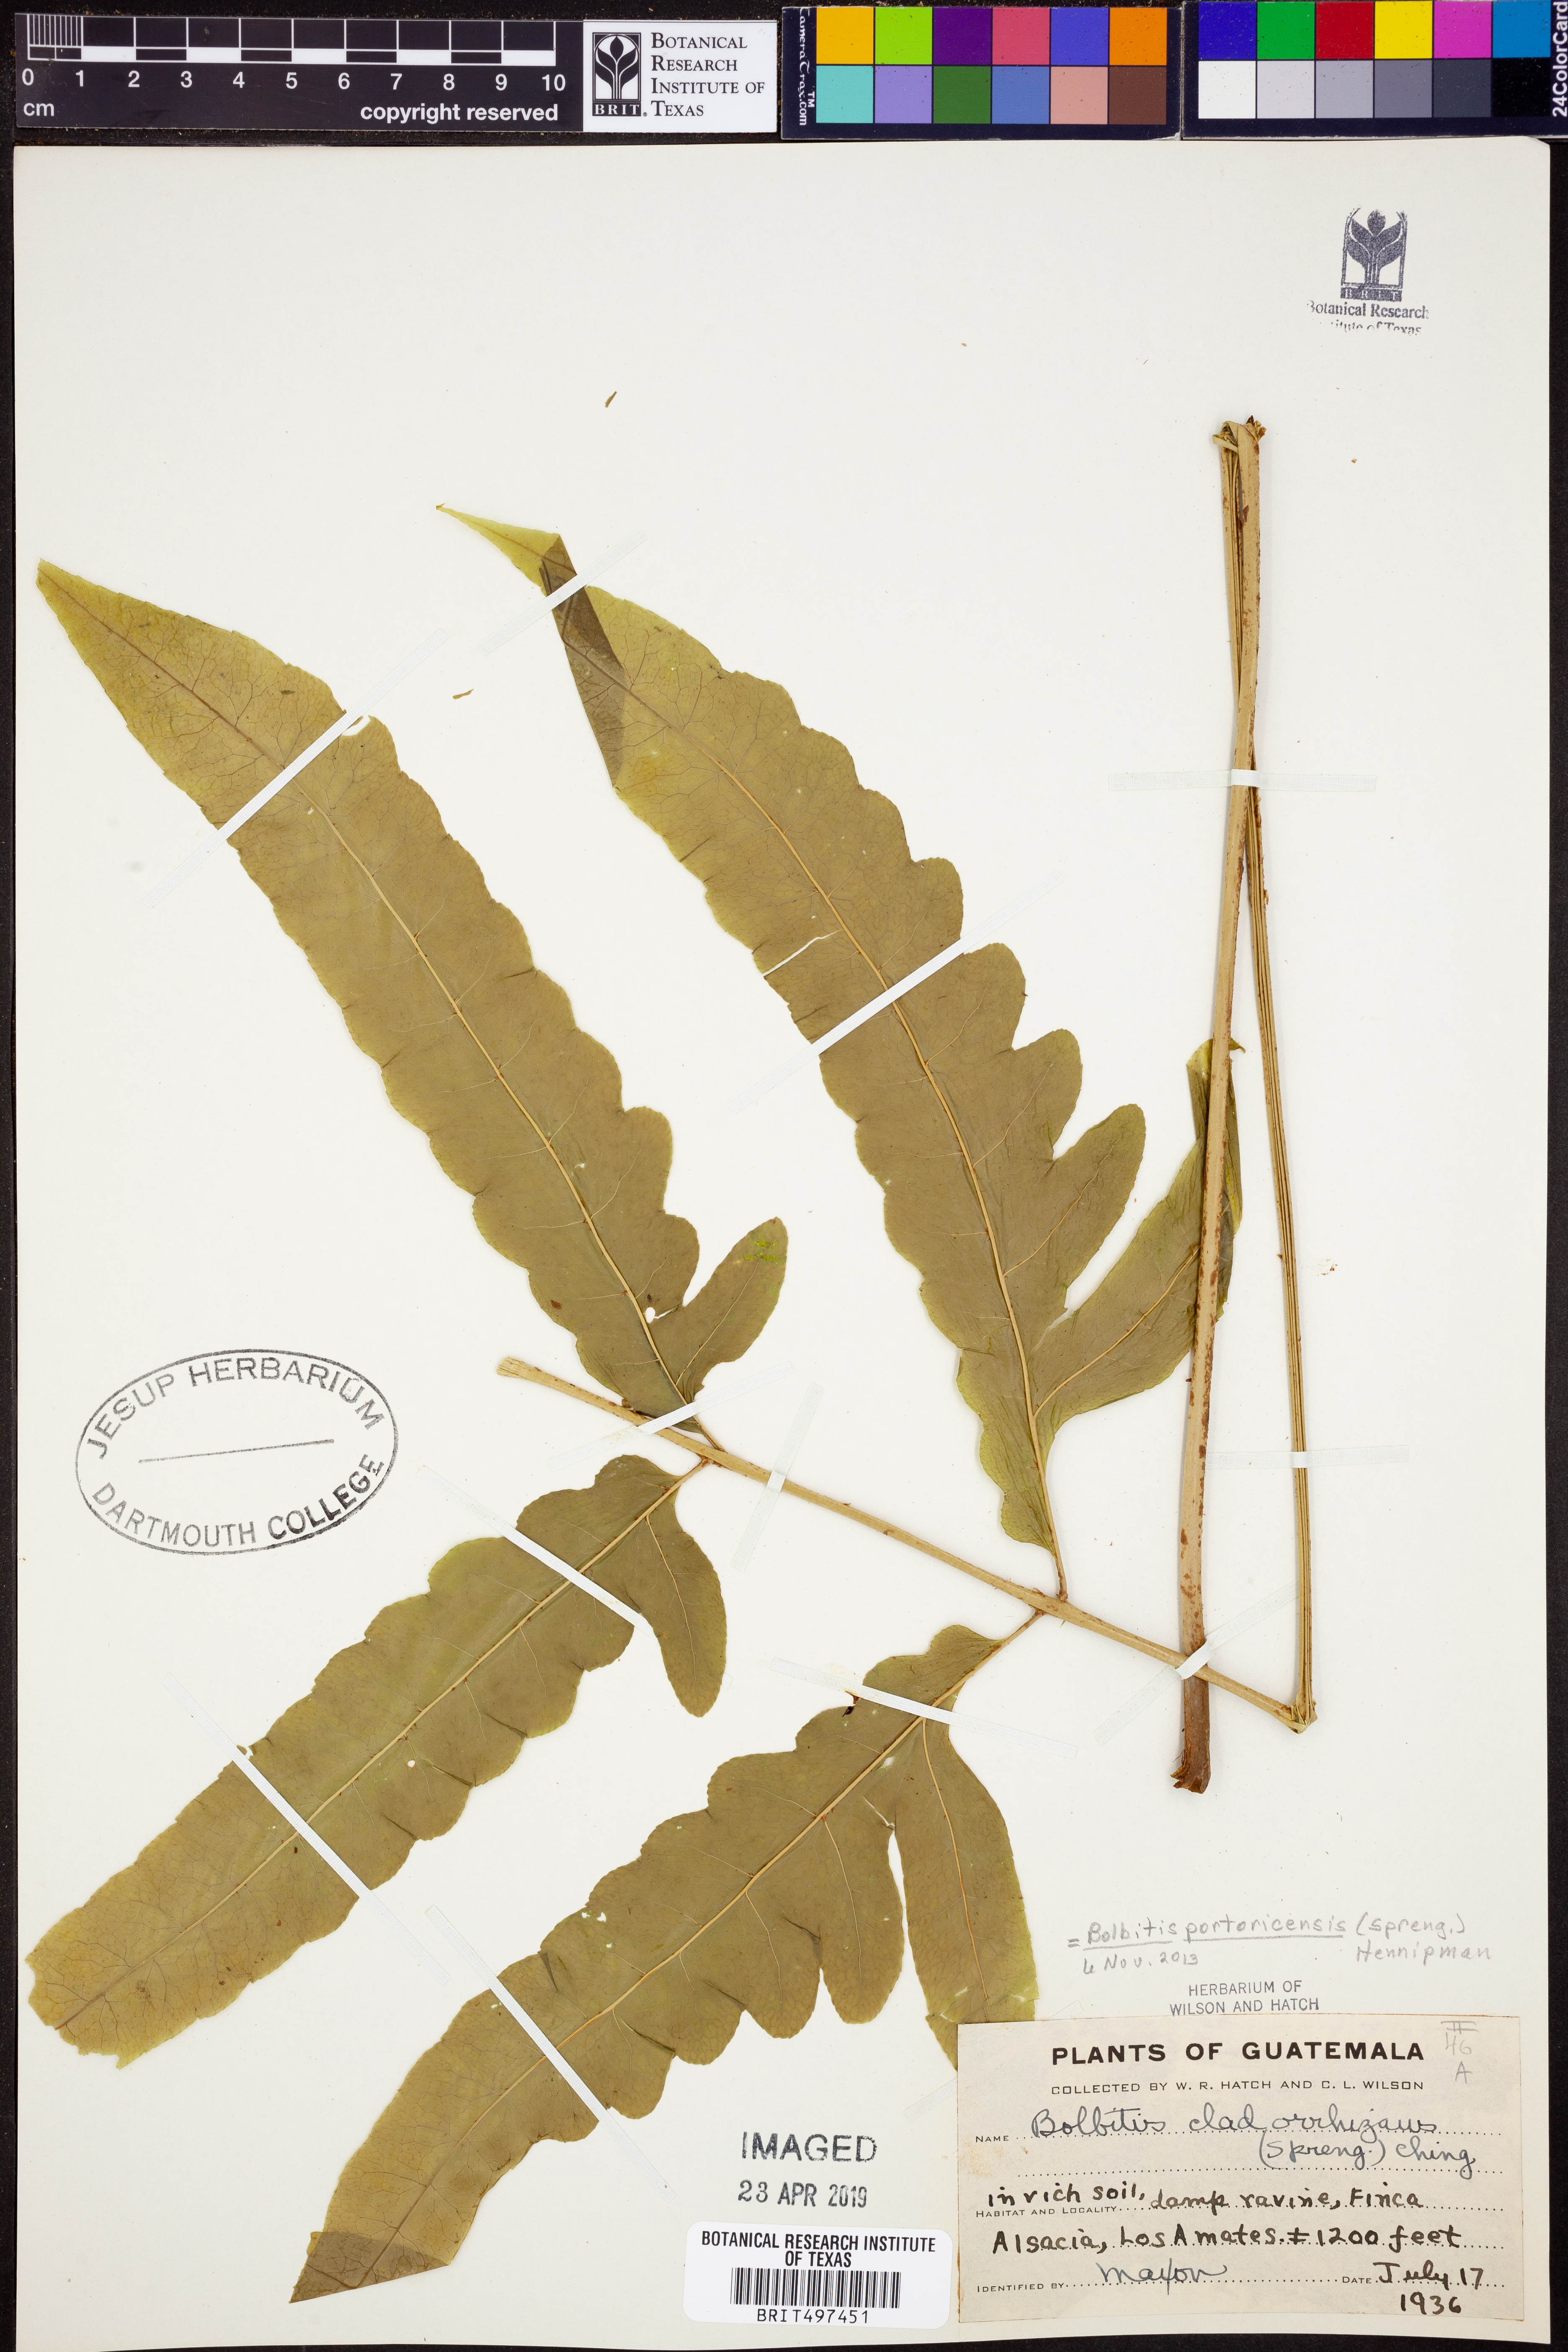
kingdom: Plantae
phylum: Tracheophyta
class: Polypodiopsida
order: Polypodiales
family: Dryopteridaceae
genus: Bolbitis
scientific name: Bolbitis portoricensis
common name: Puerto rico creepingfer
